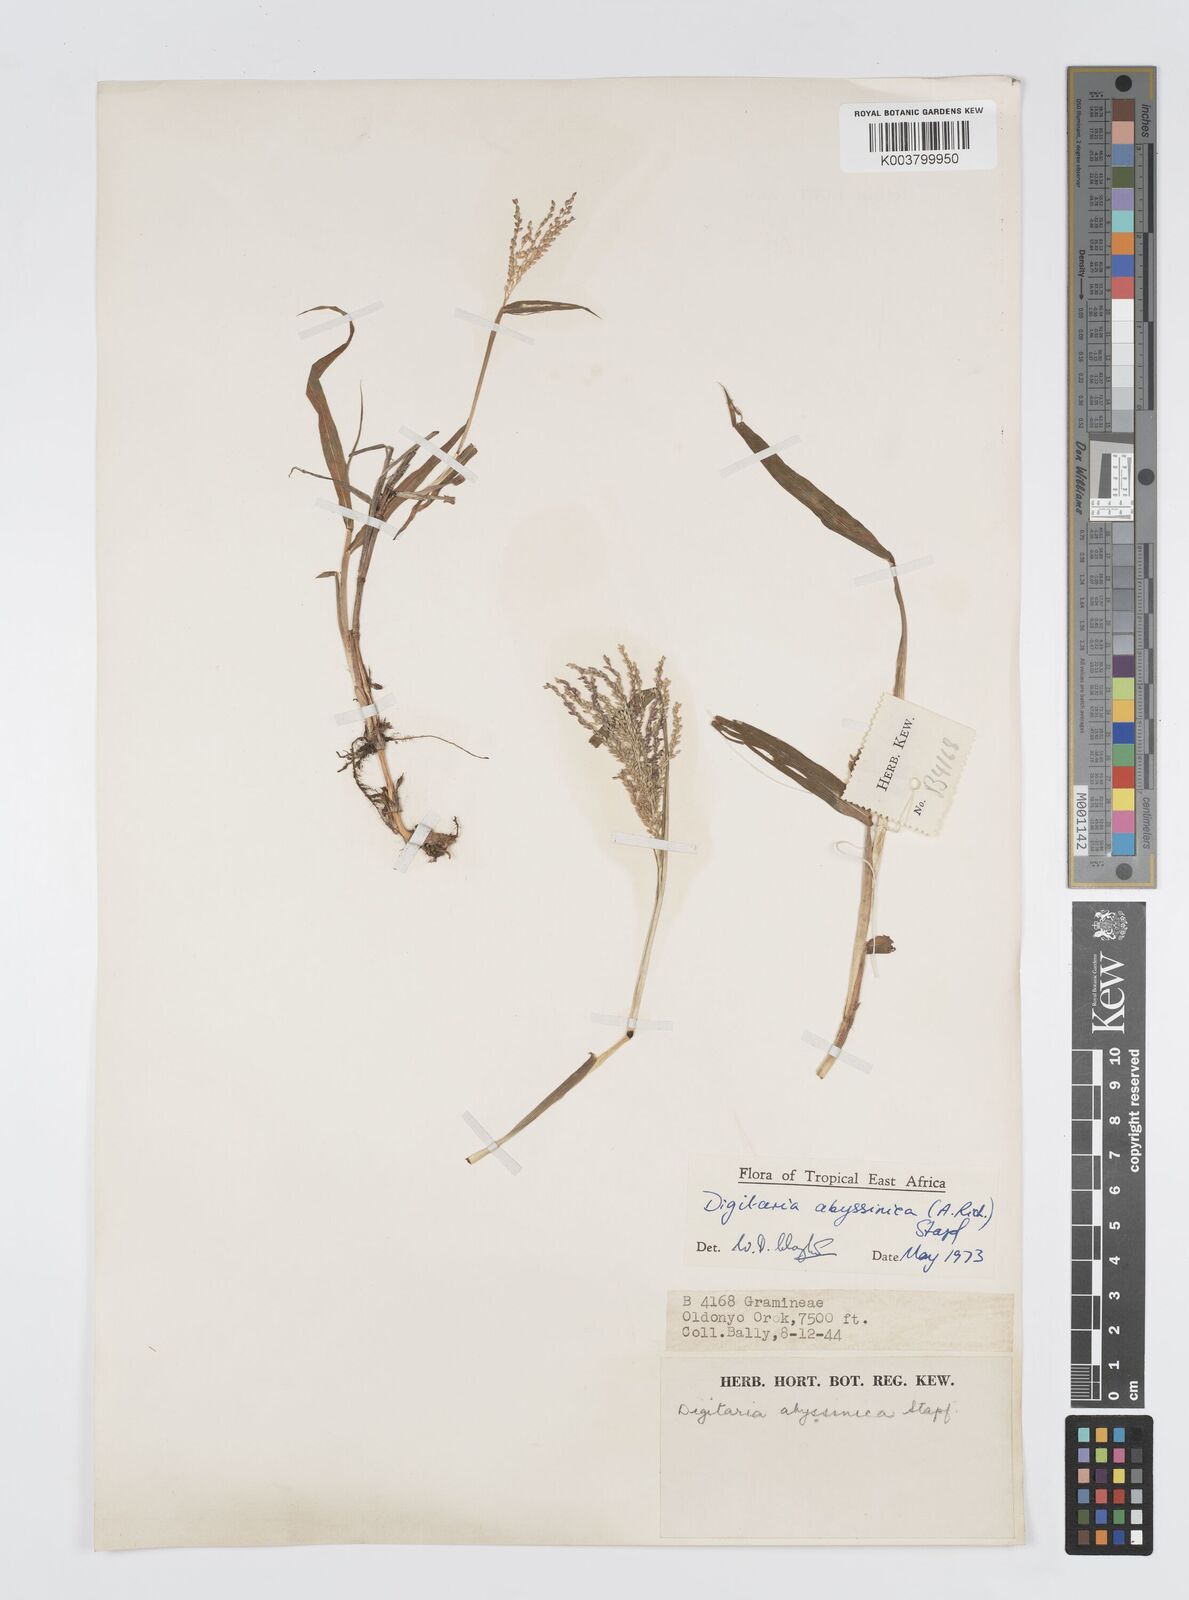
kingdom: Plantae
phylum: Tracheophyta
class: Liliopsida
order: Poales
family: Poaceae
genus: Digitaria
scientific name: Digitaria abyssinica
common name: African couchgrass
